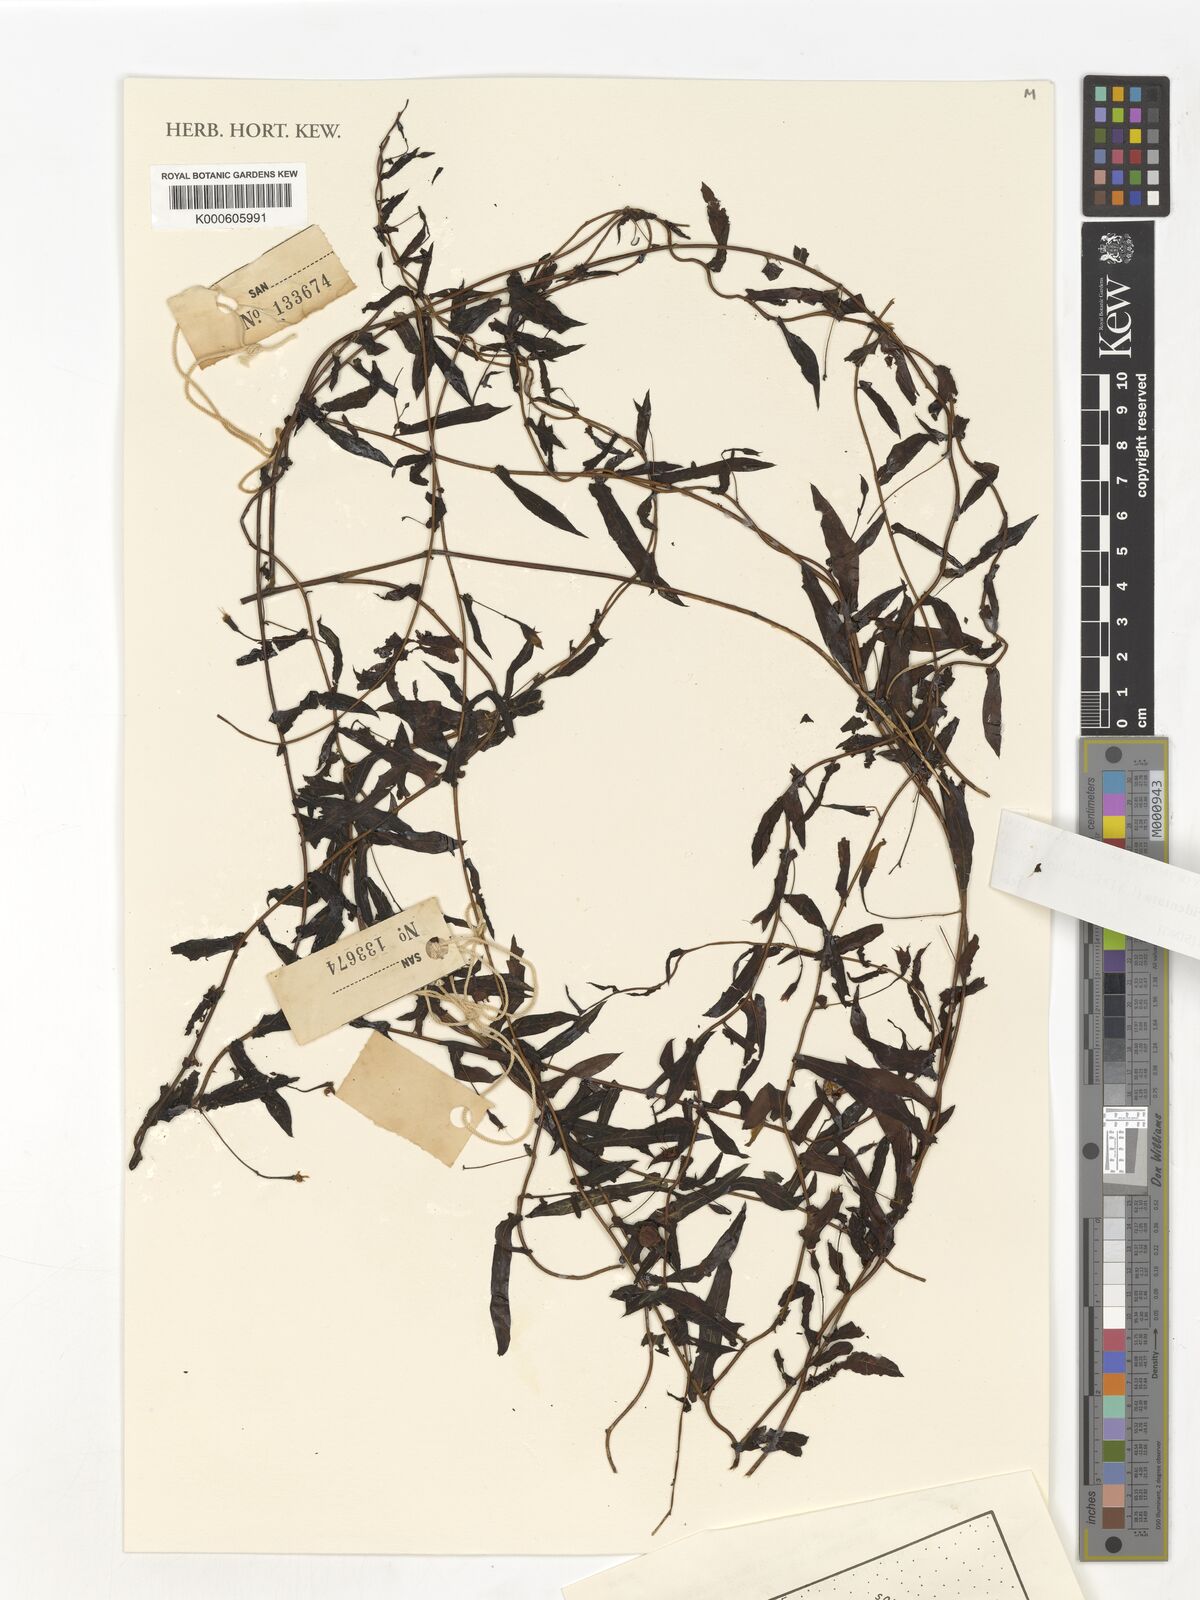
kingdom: Plantae
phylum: Tracheophyta
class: Magnoliopsida
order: Solanales
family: Convolvulaceae
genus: Xenostegia
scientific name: Xenostegia tridentata
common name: African morningvine
